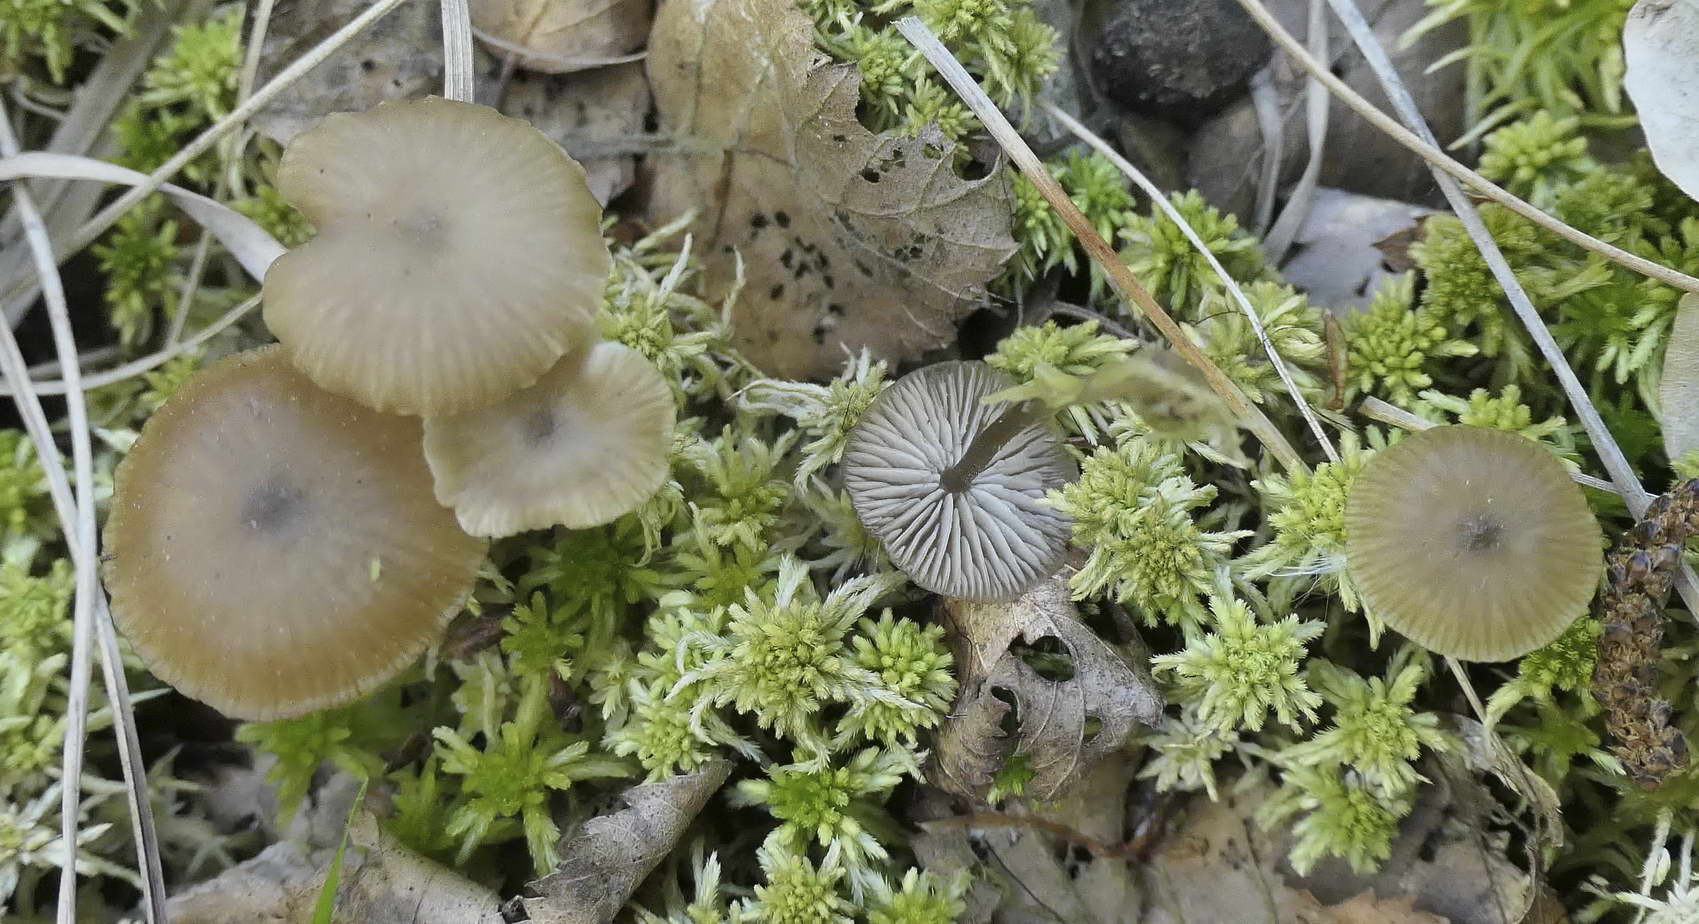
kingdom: Fungi
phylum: Basidiomycota
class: Agaricomycetes
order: Agaricales
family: Lyophyllaceae
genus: Sphagnurus
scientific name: Sphagnurus paluster
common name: tørvemos-gråblad
